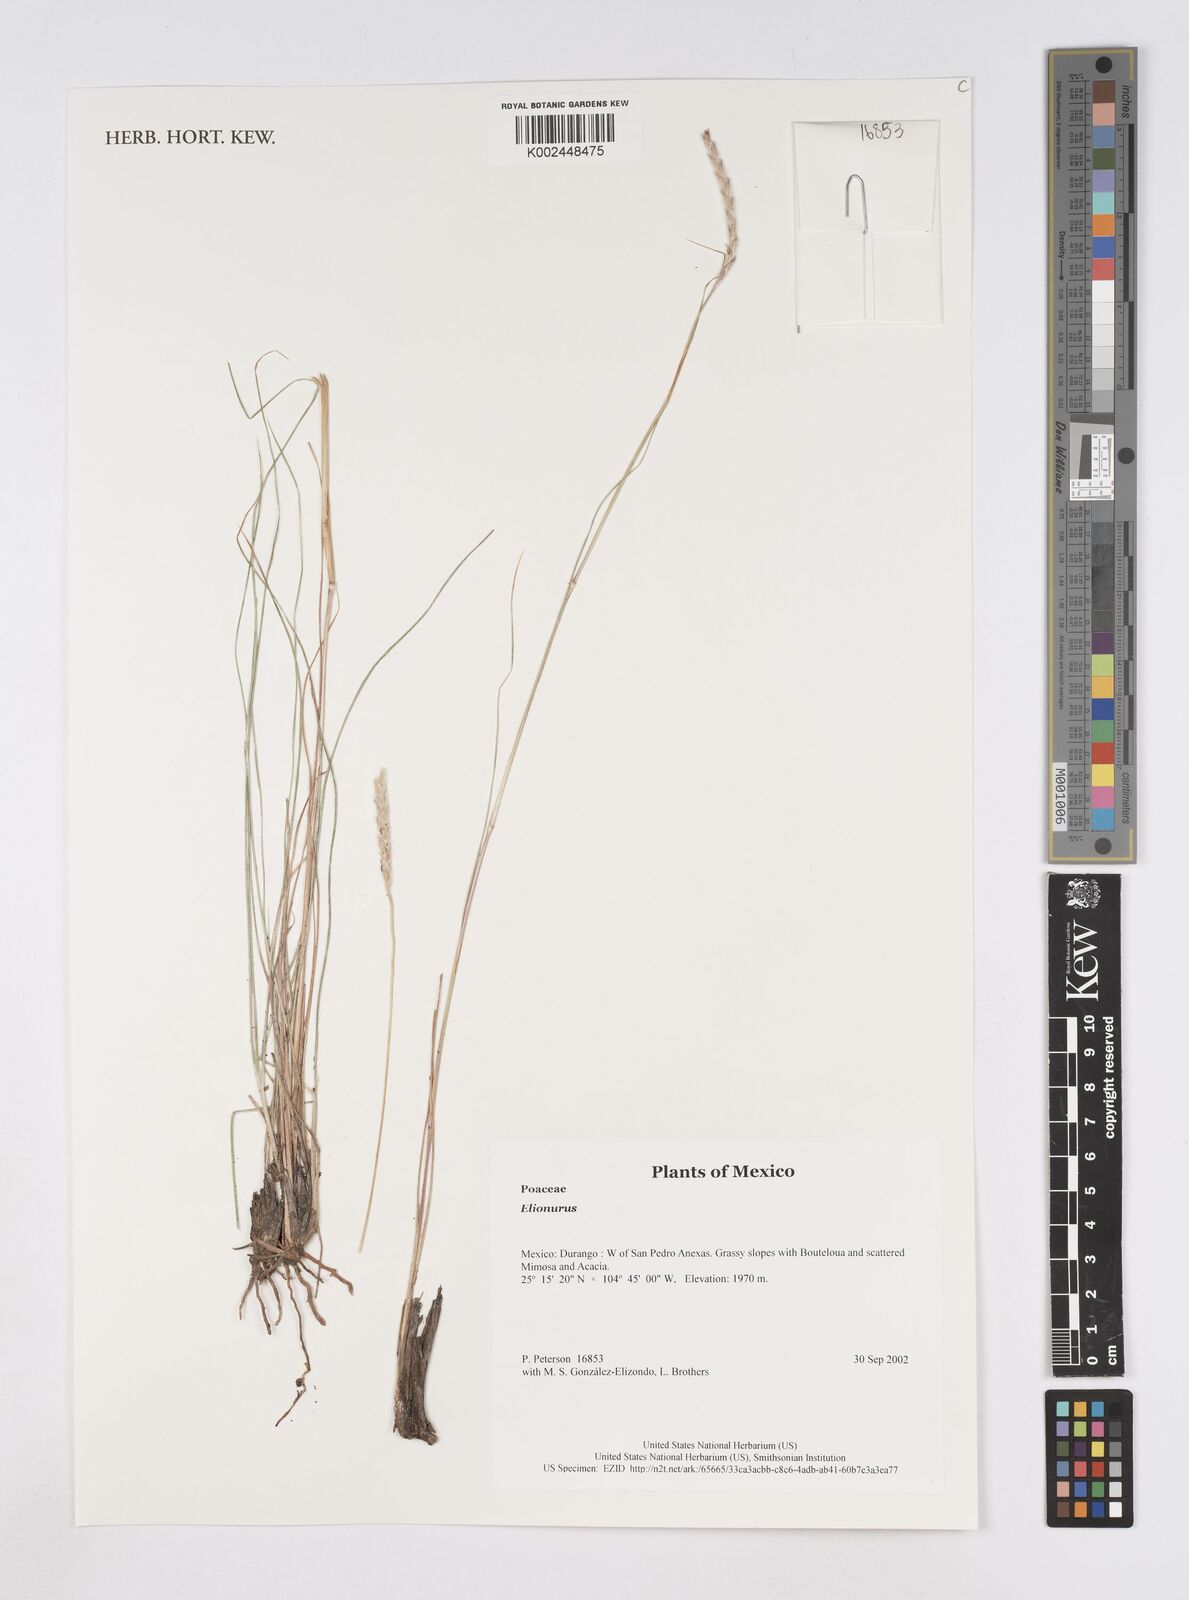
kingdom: Plantae
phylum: Tracheophyta
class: Liliopsida
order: Poales
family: Poaceae
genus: Elionurus
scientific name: Elionurus
